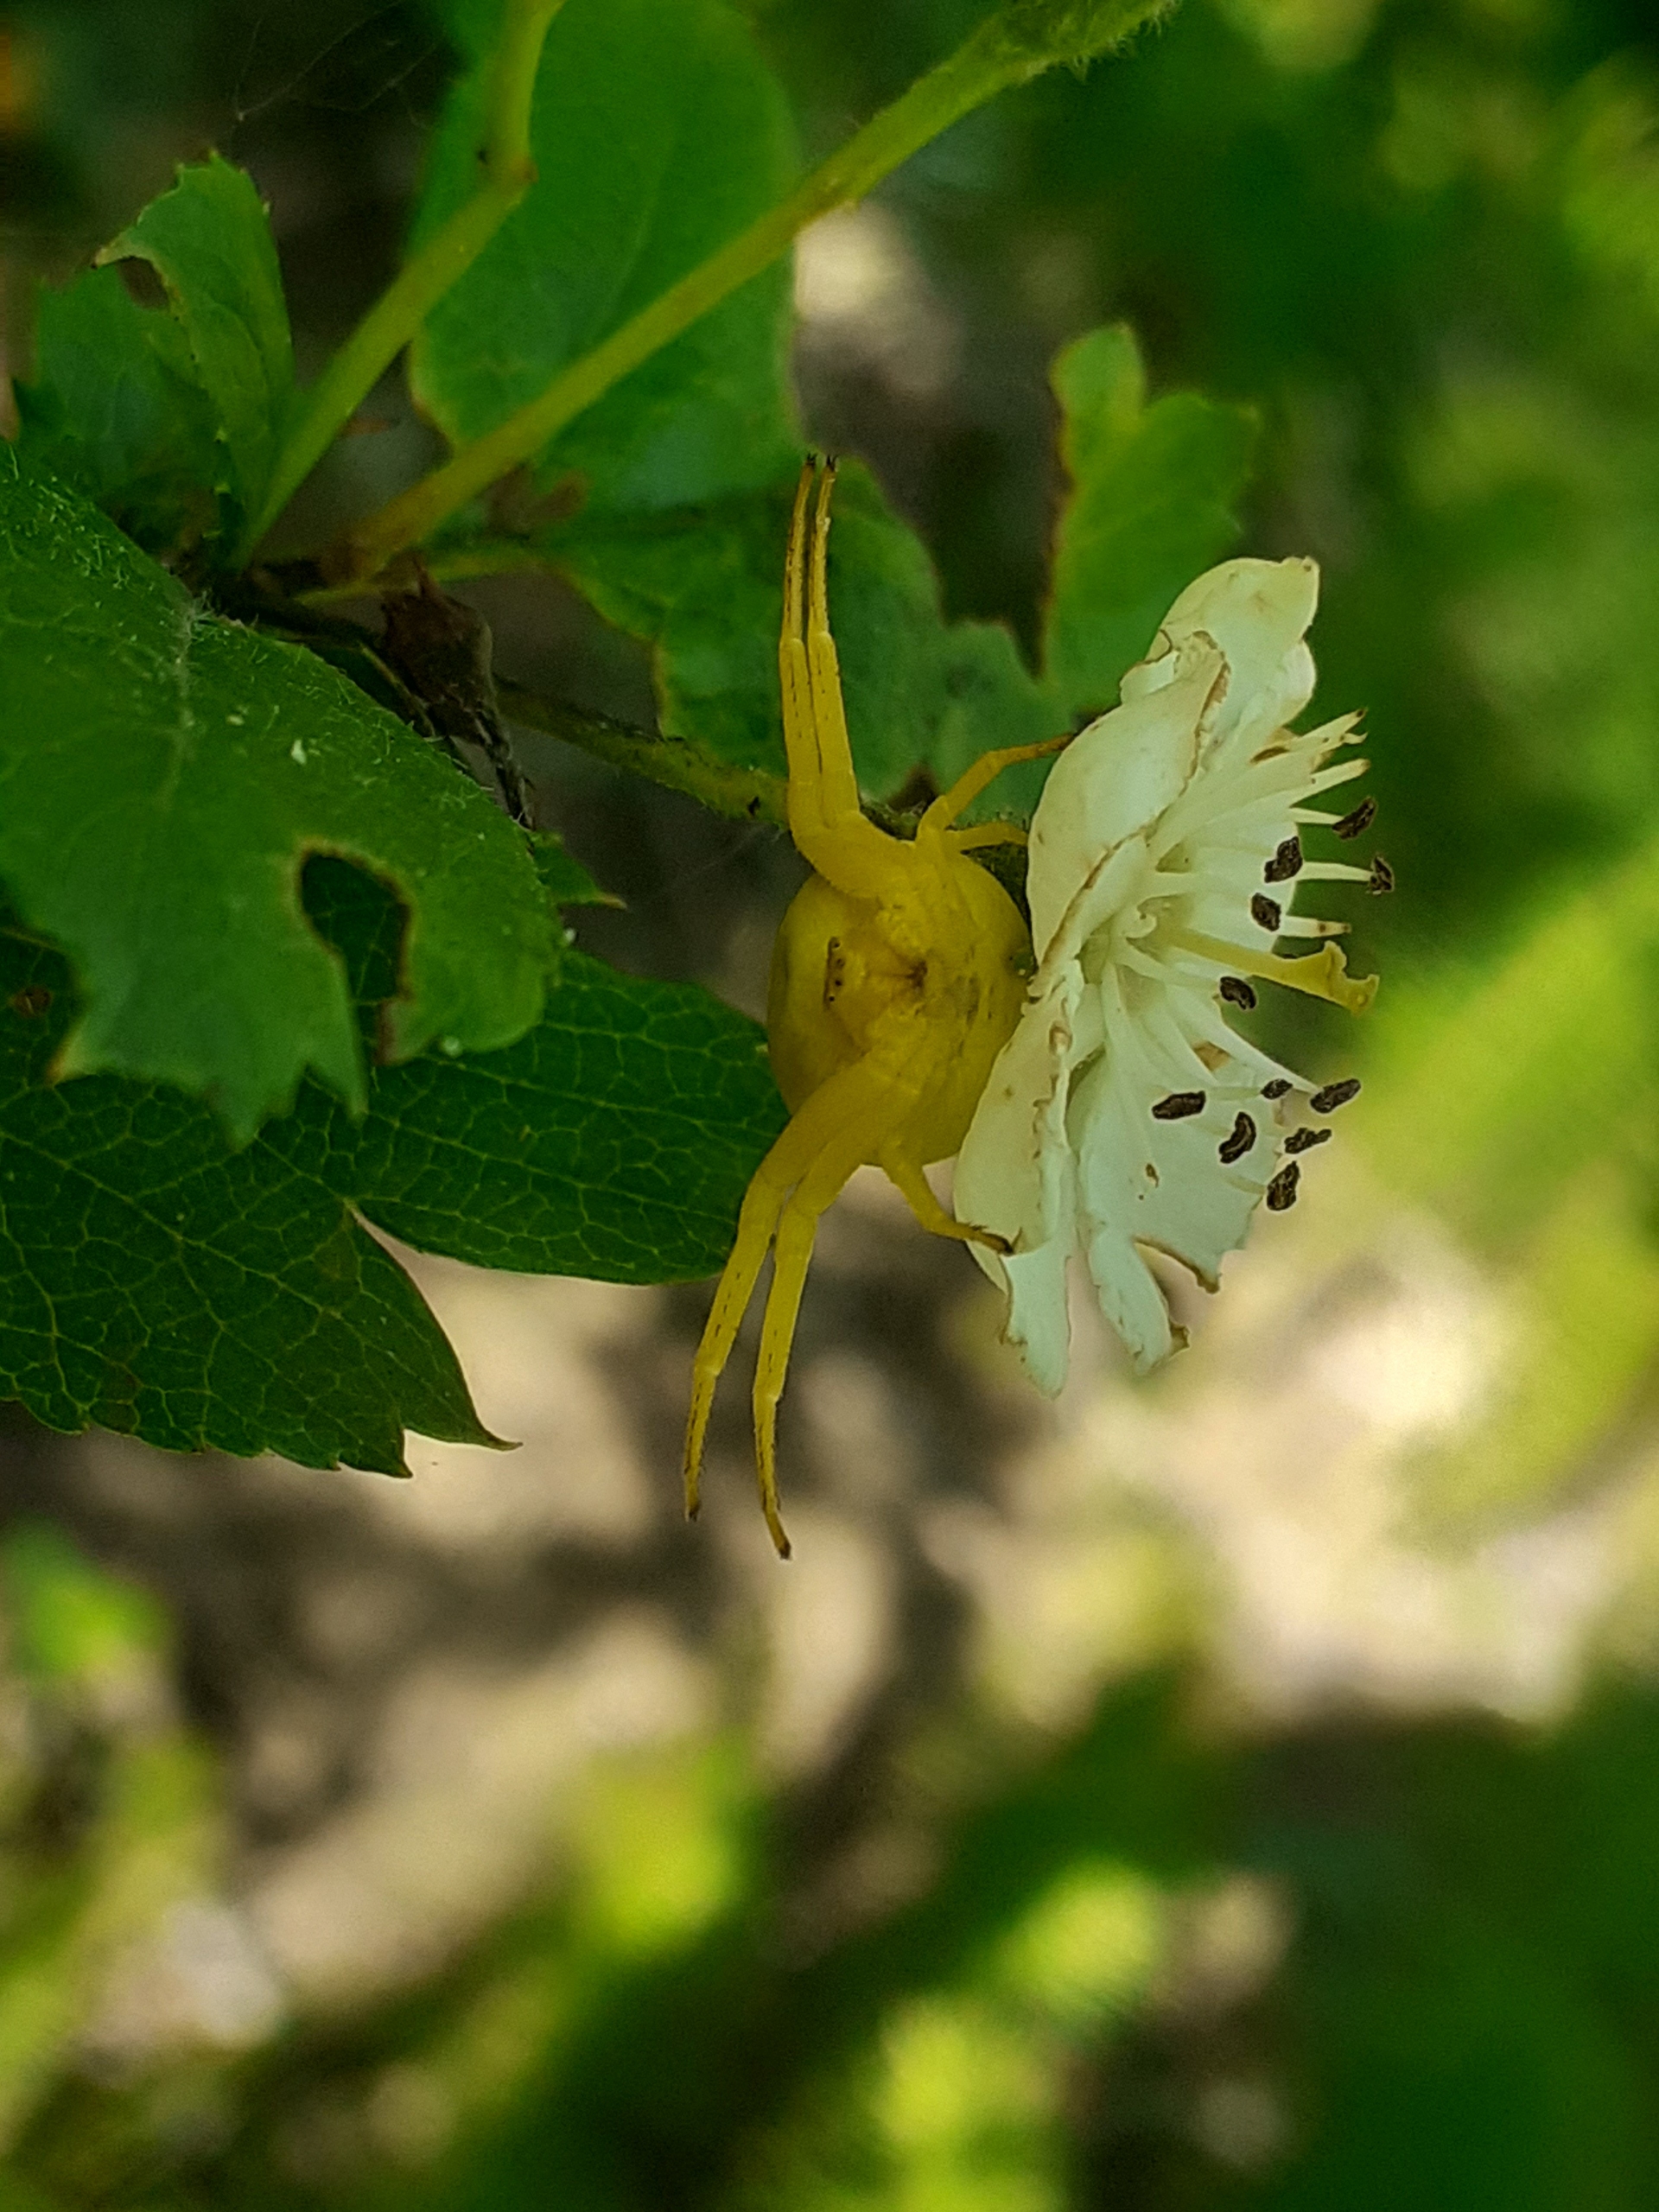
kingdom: Animalia
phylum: Arthropoda
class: Arachnida
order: Araneae
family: Thomisidae
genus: Misumena
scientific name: Misumena vatia
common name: Kamæleonedderkop
